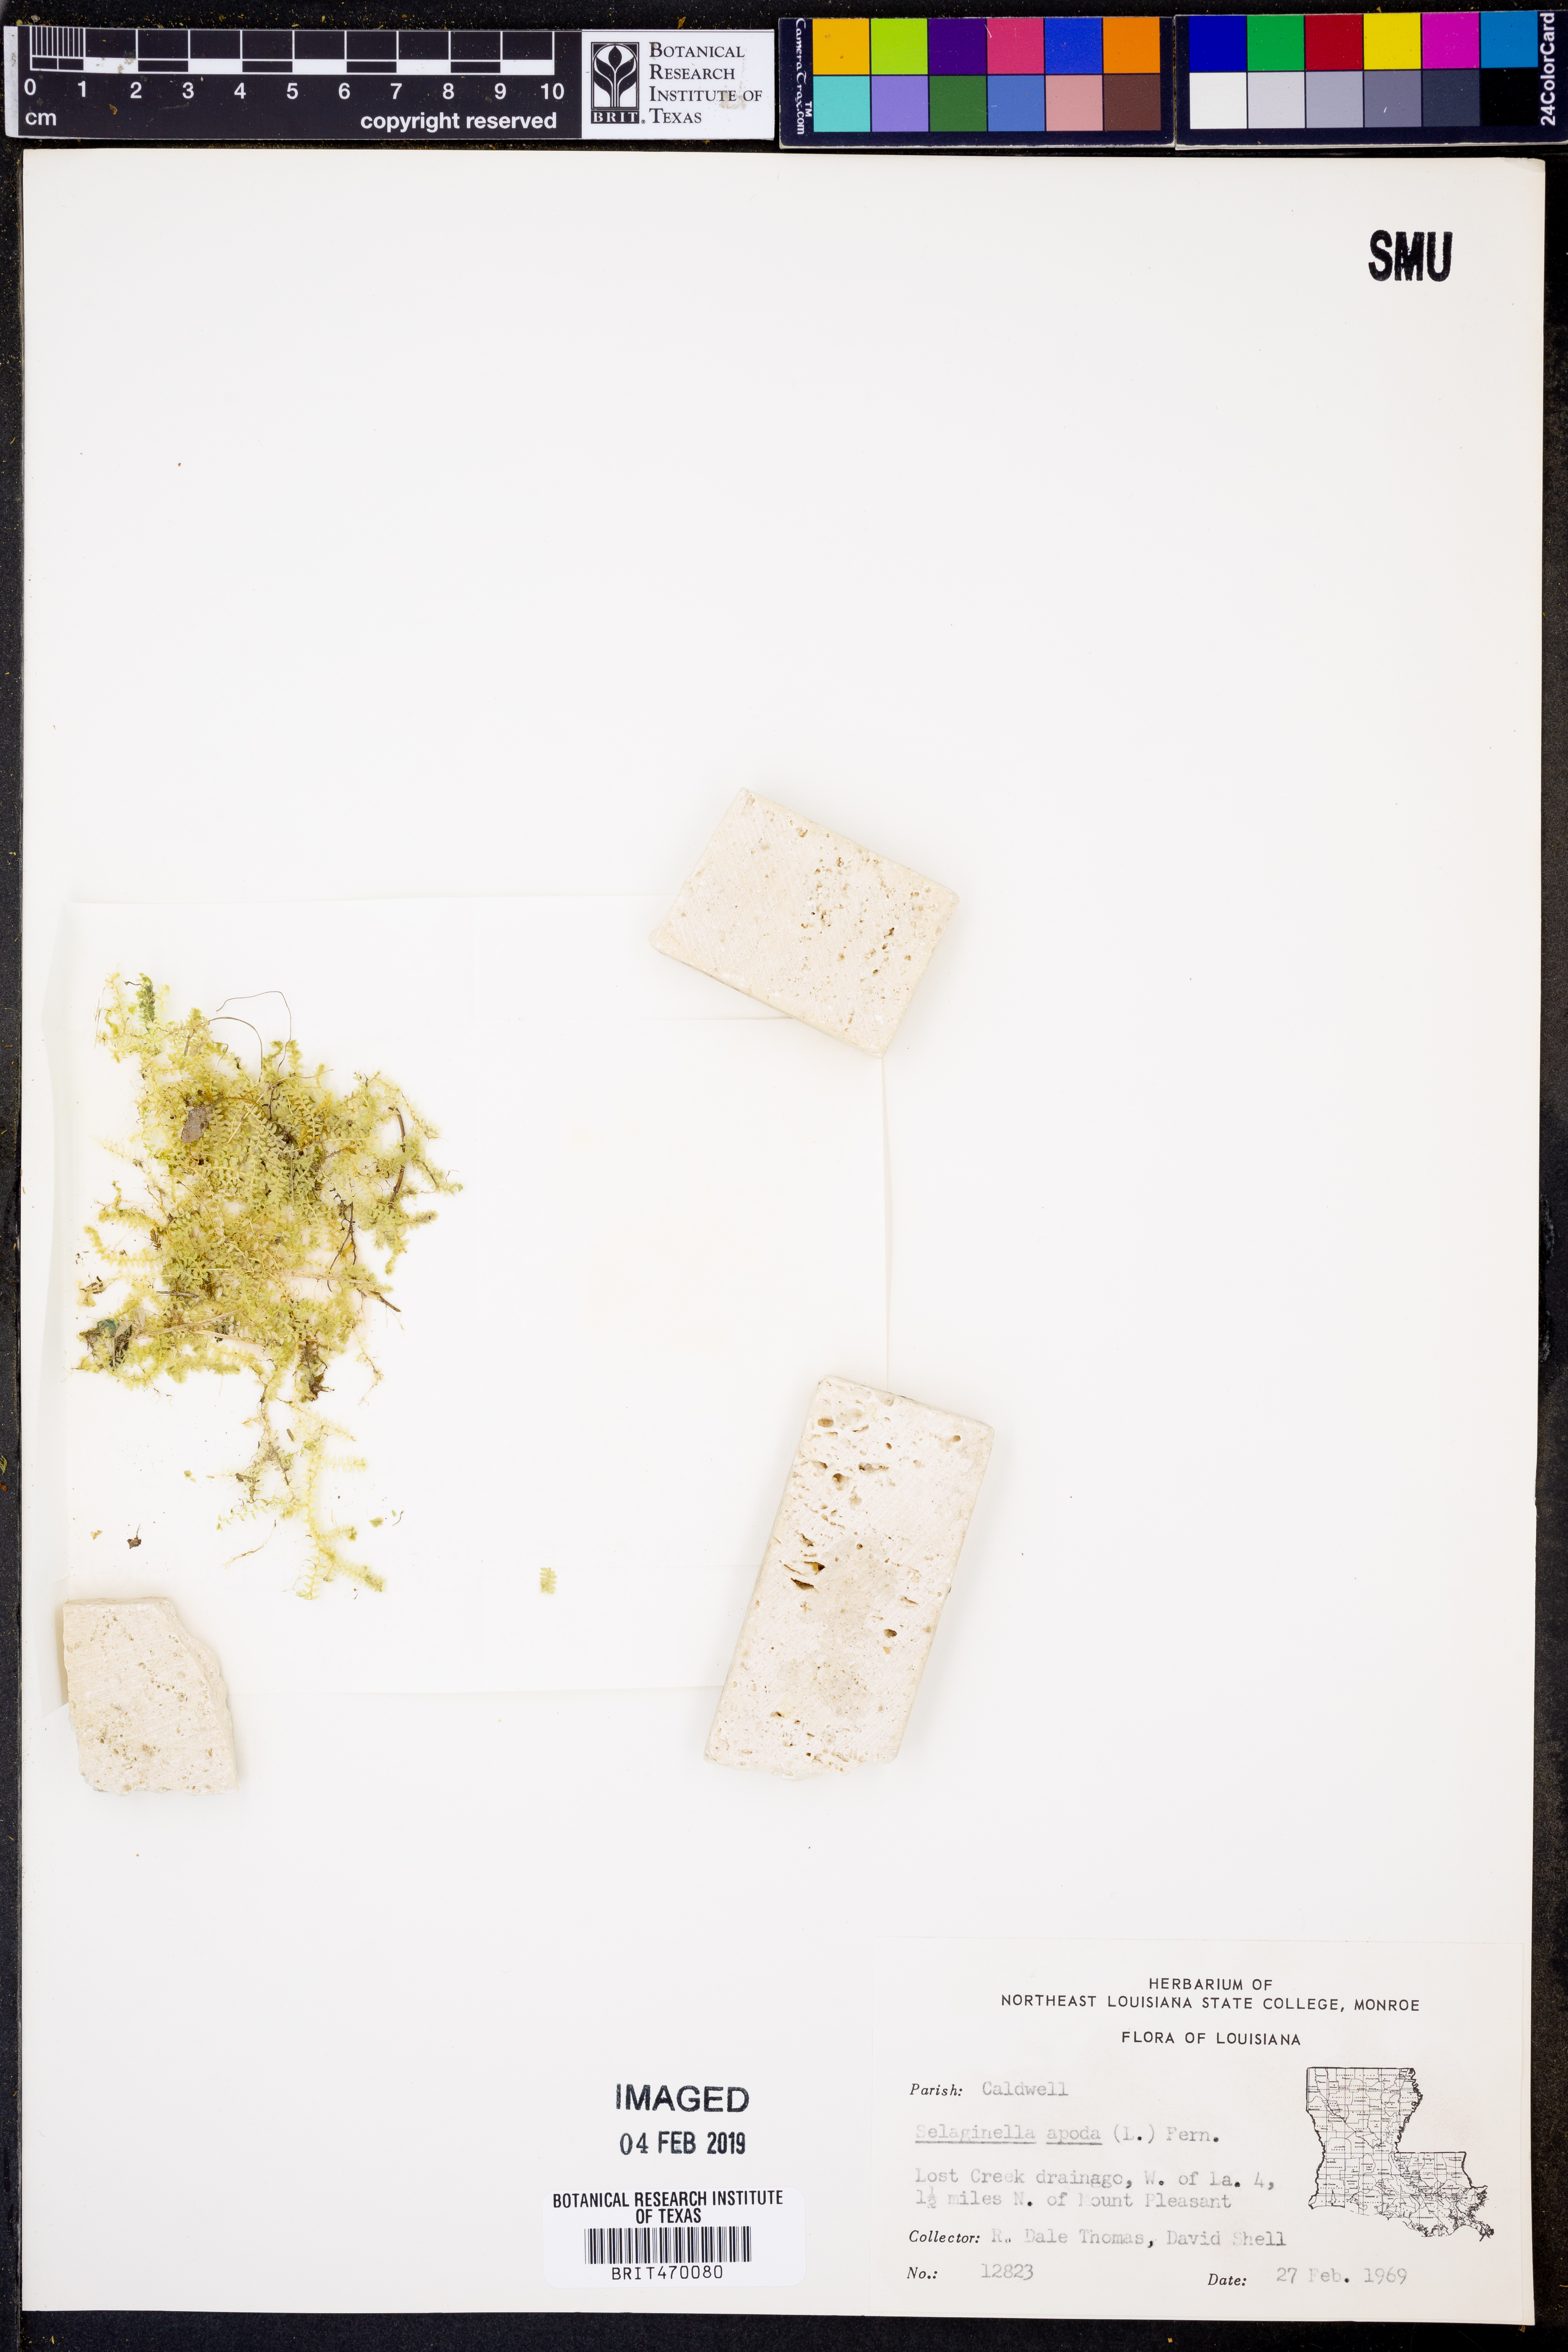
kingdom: Plantae
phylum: Tracheophyta
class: Lycopodiopsida
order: Selaginellales
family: Selaginellaceae
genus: Selaginella
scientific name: Selaginella apoda
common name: Creeping spikemoss
